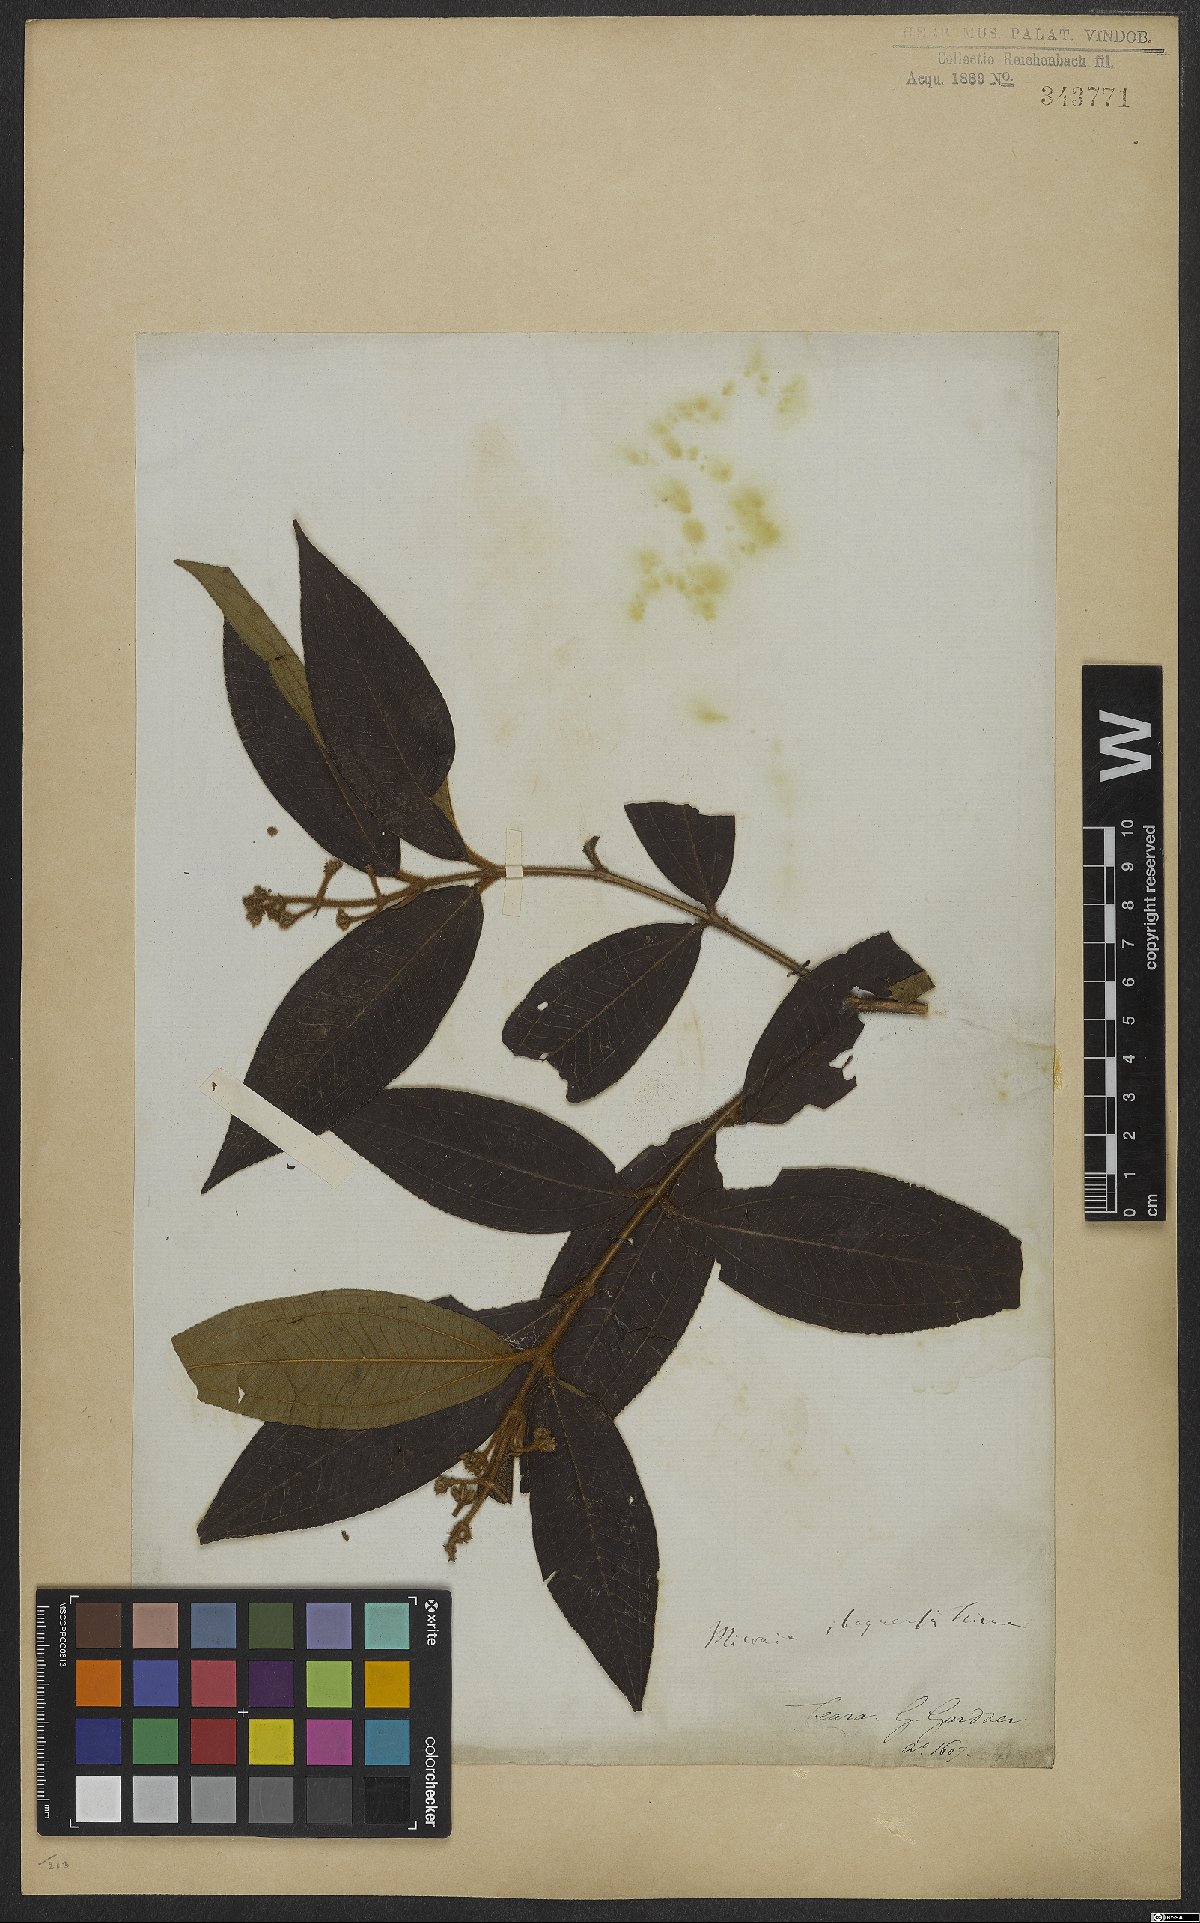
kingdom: Plantae
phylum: Tracheophyta
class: Magnoliopsida
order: Myrtales
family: Melastomataceae
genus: Miconia
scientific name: Miconia ibaguensis
